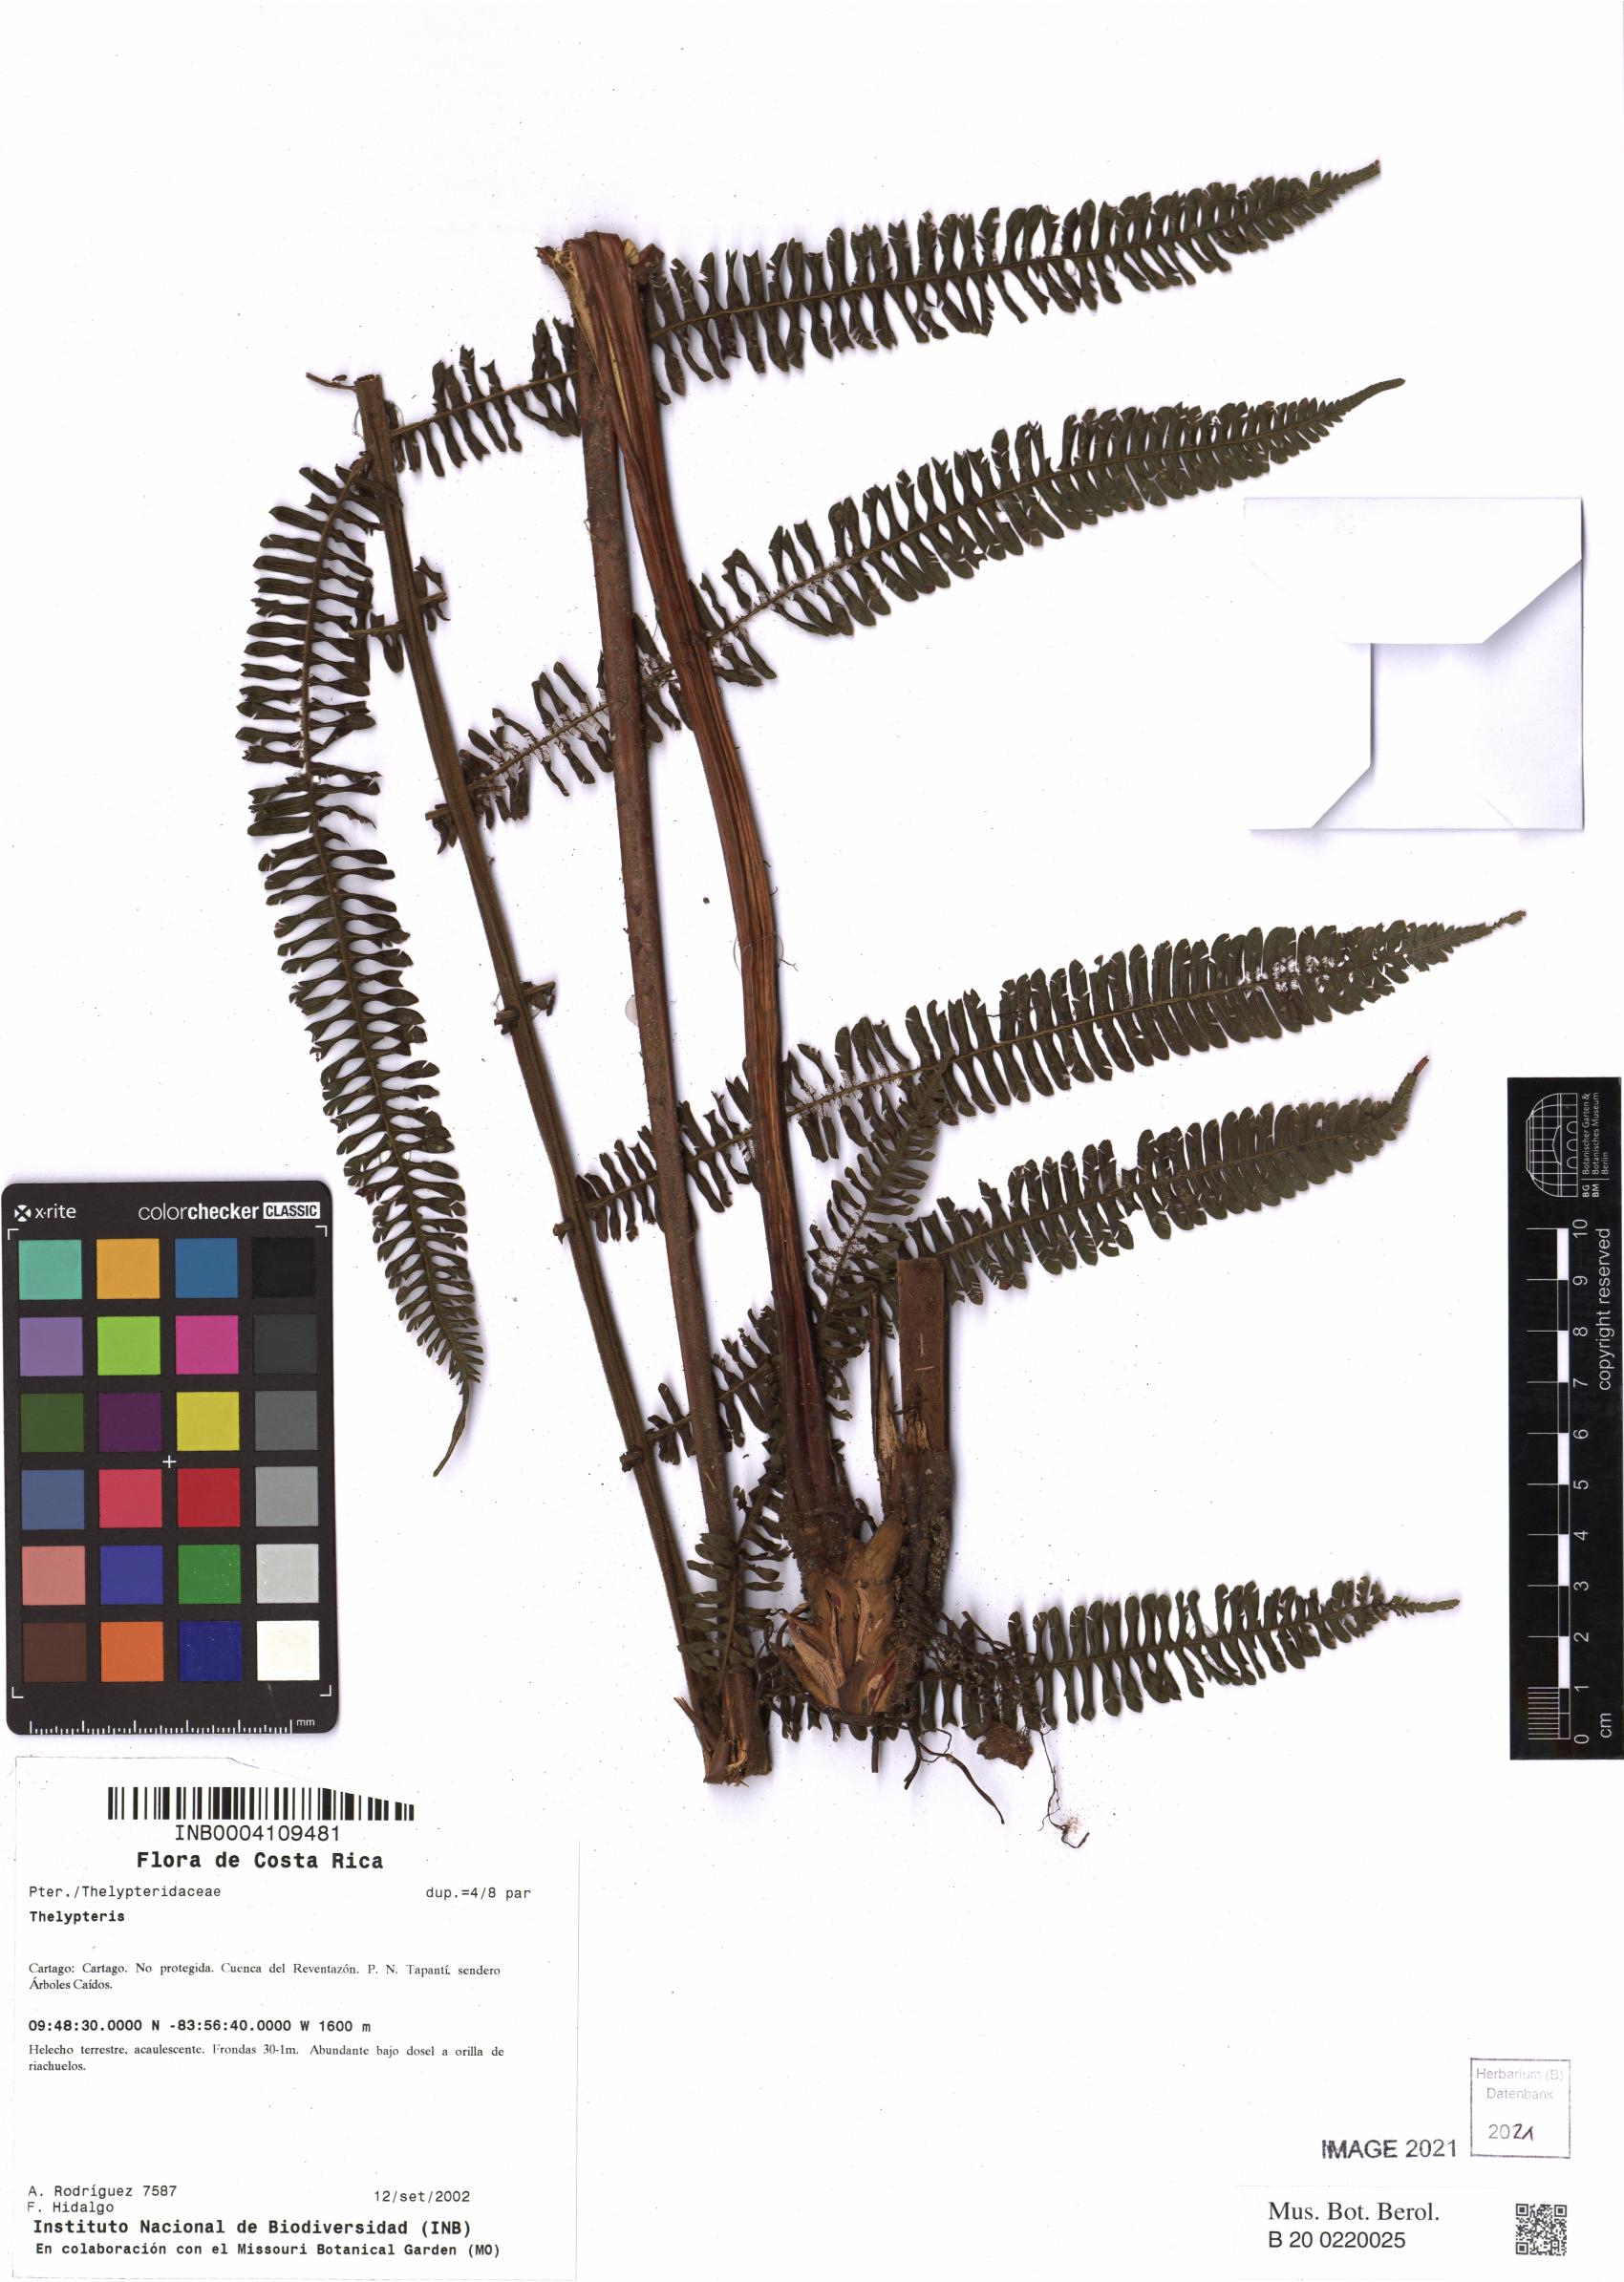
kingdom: Plantae
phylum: Tracheophyta
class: Polypodiopsida
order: Polypodiales
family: Thelypteridaceae
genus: Thelypteris
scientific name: Thelypteris
